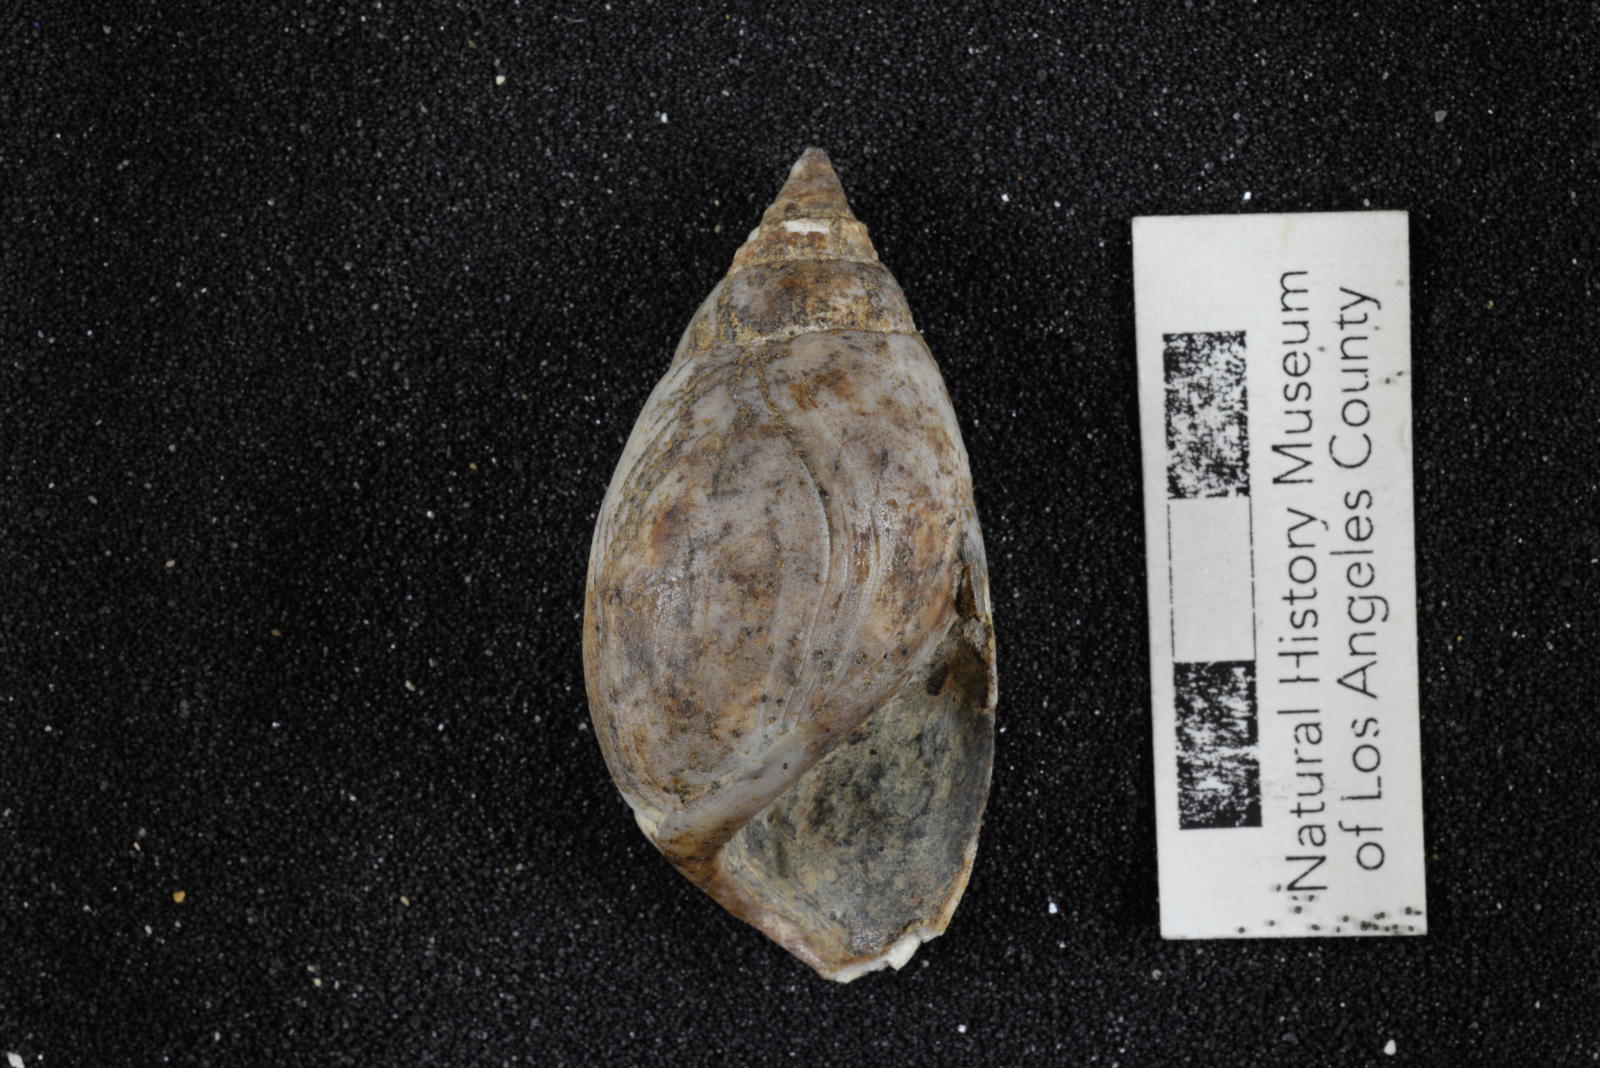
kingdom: Animalia
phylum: Mollusca
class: Gastropoda
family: Pseudomelaniidae
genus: Paosia
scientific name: Paosia Acteonina colusaensis
